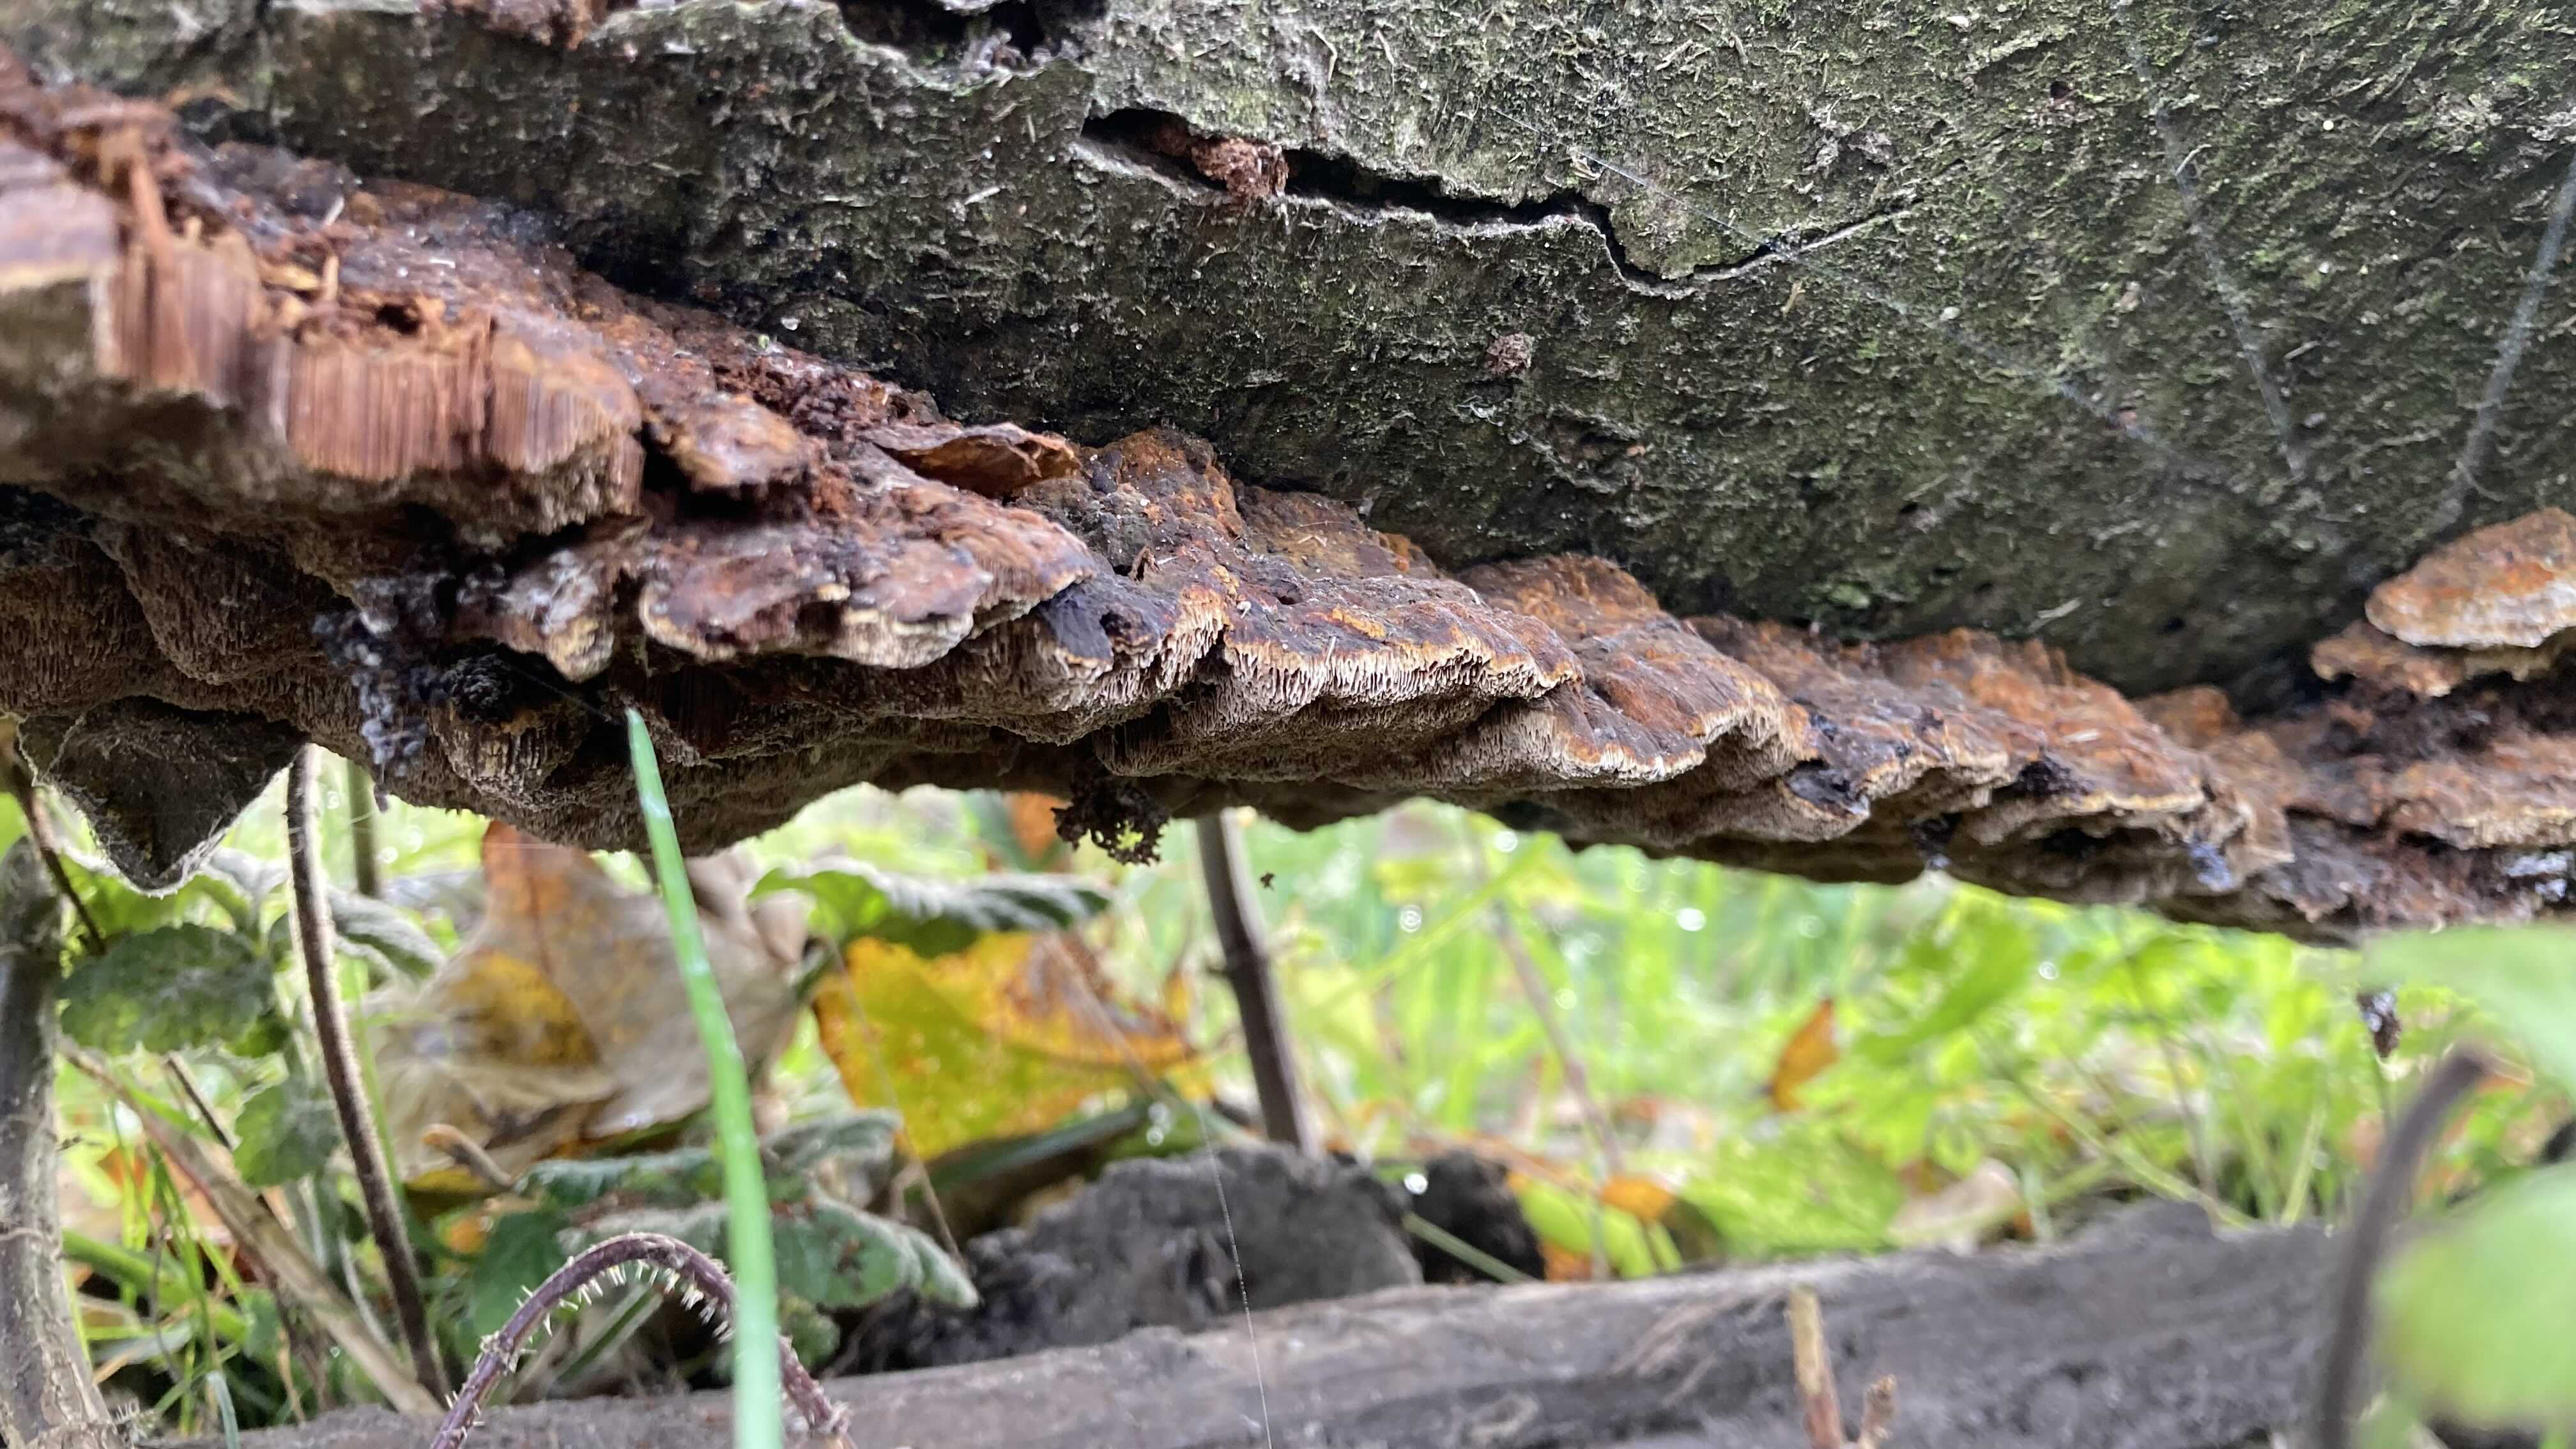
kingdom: Fungi
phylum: Basidiomycota
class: Agaricomycetes
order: Hymenochaetales
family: Hymenochaetaceae
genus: Xanthoporia
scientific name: Xanthoporia radiata
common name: elle-spejlporesvamp
